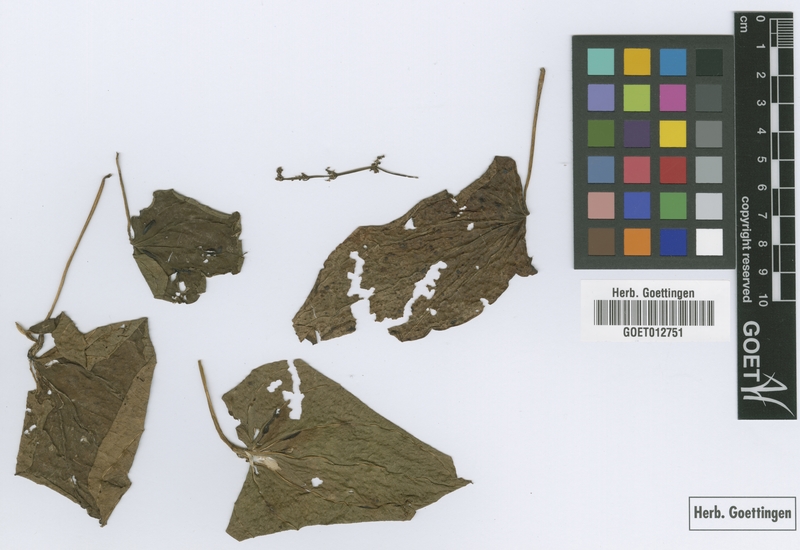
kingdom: Plantae
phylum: Tracheophyta
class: Liliopsida
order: Dioscoreales
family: Dioscoreaceae
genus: Dioscorea
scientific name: Dioscorea alata
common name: Water yam
